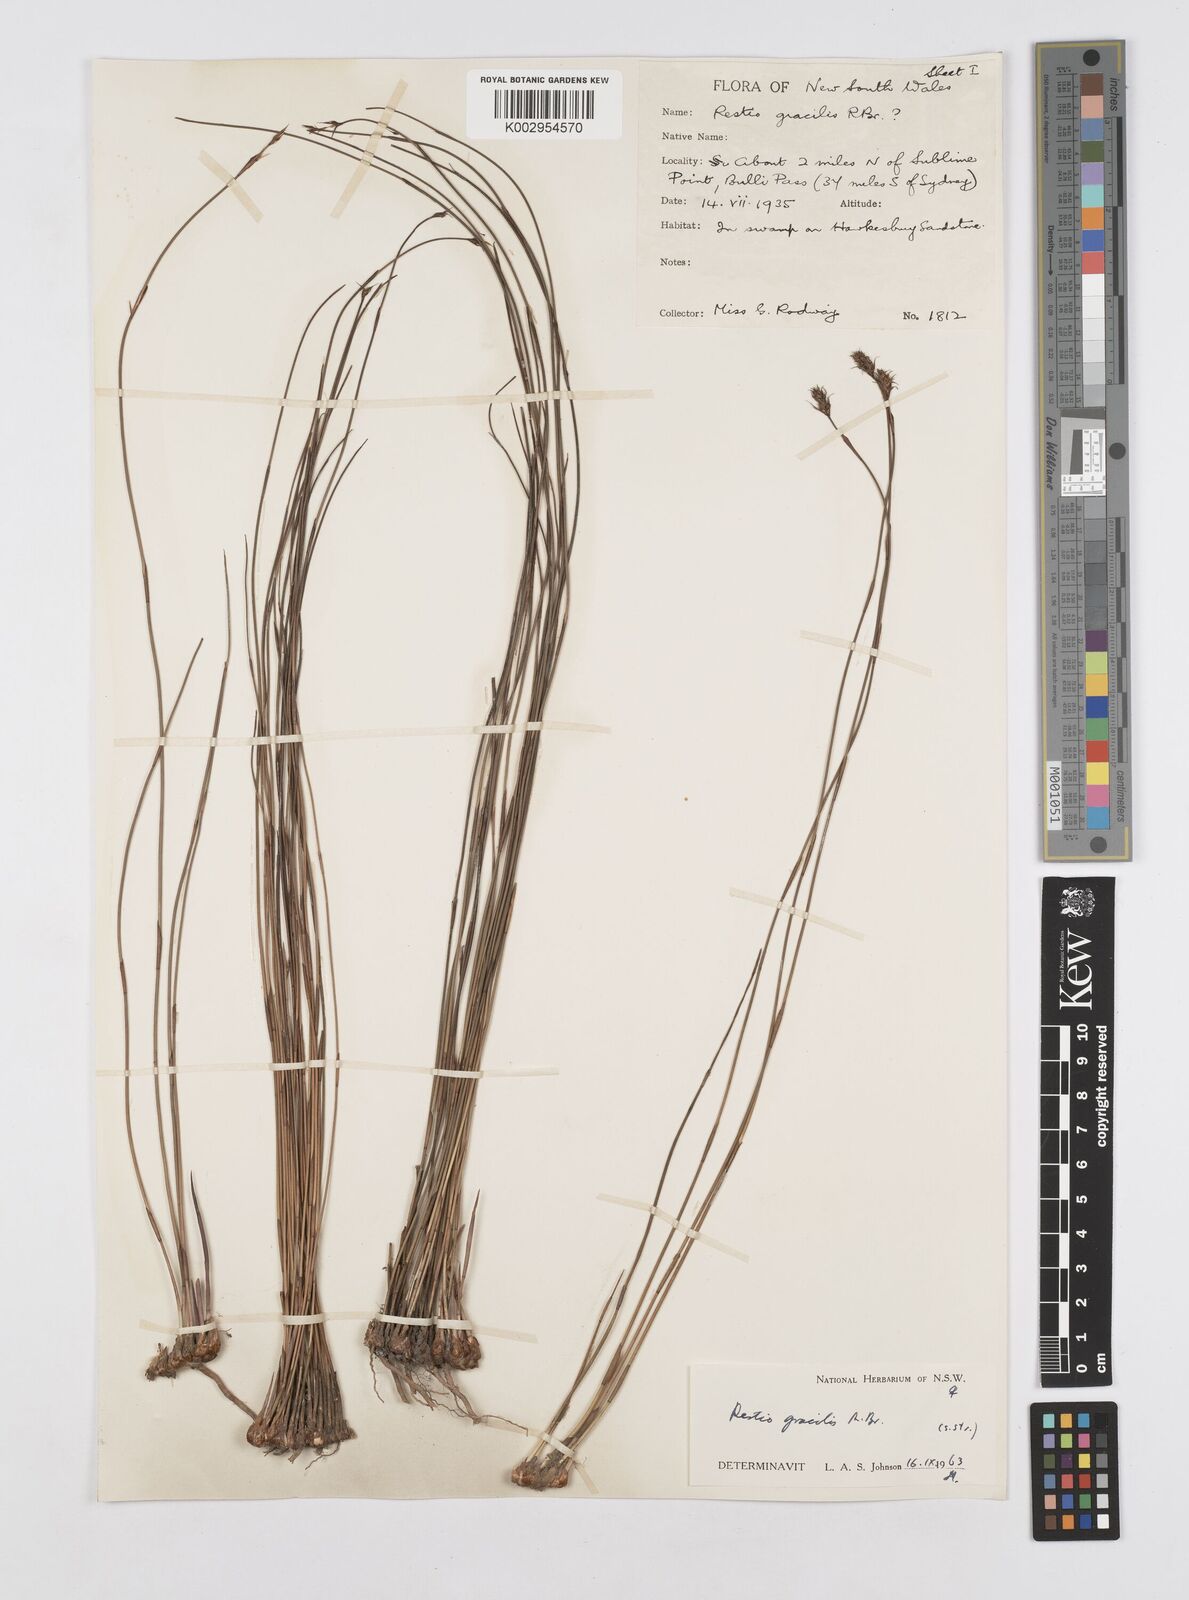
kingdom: Plantae
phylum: Tracheophyta
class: Liliopsida
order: Poales
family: Restionaceae
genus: Baloskion
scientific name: Baloskion gracile
